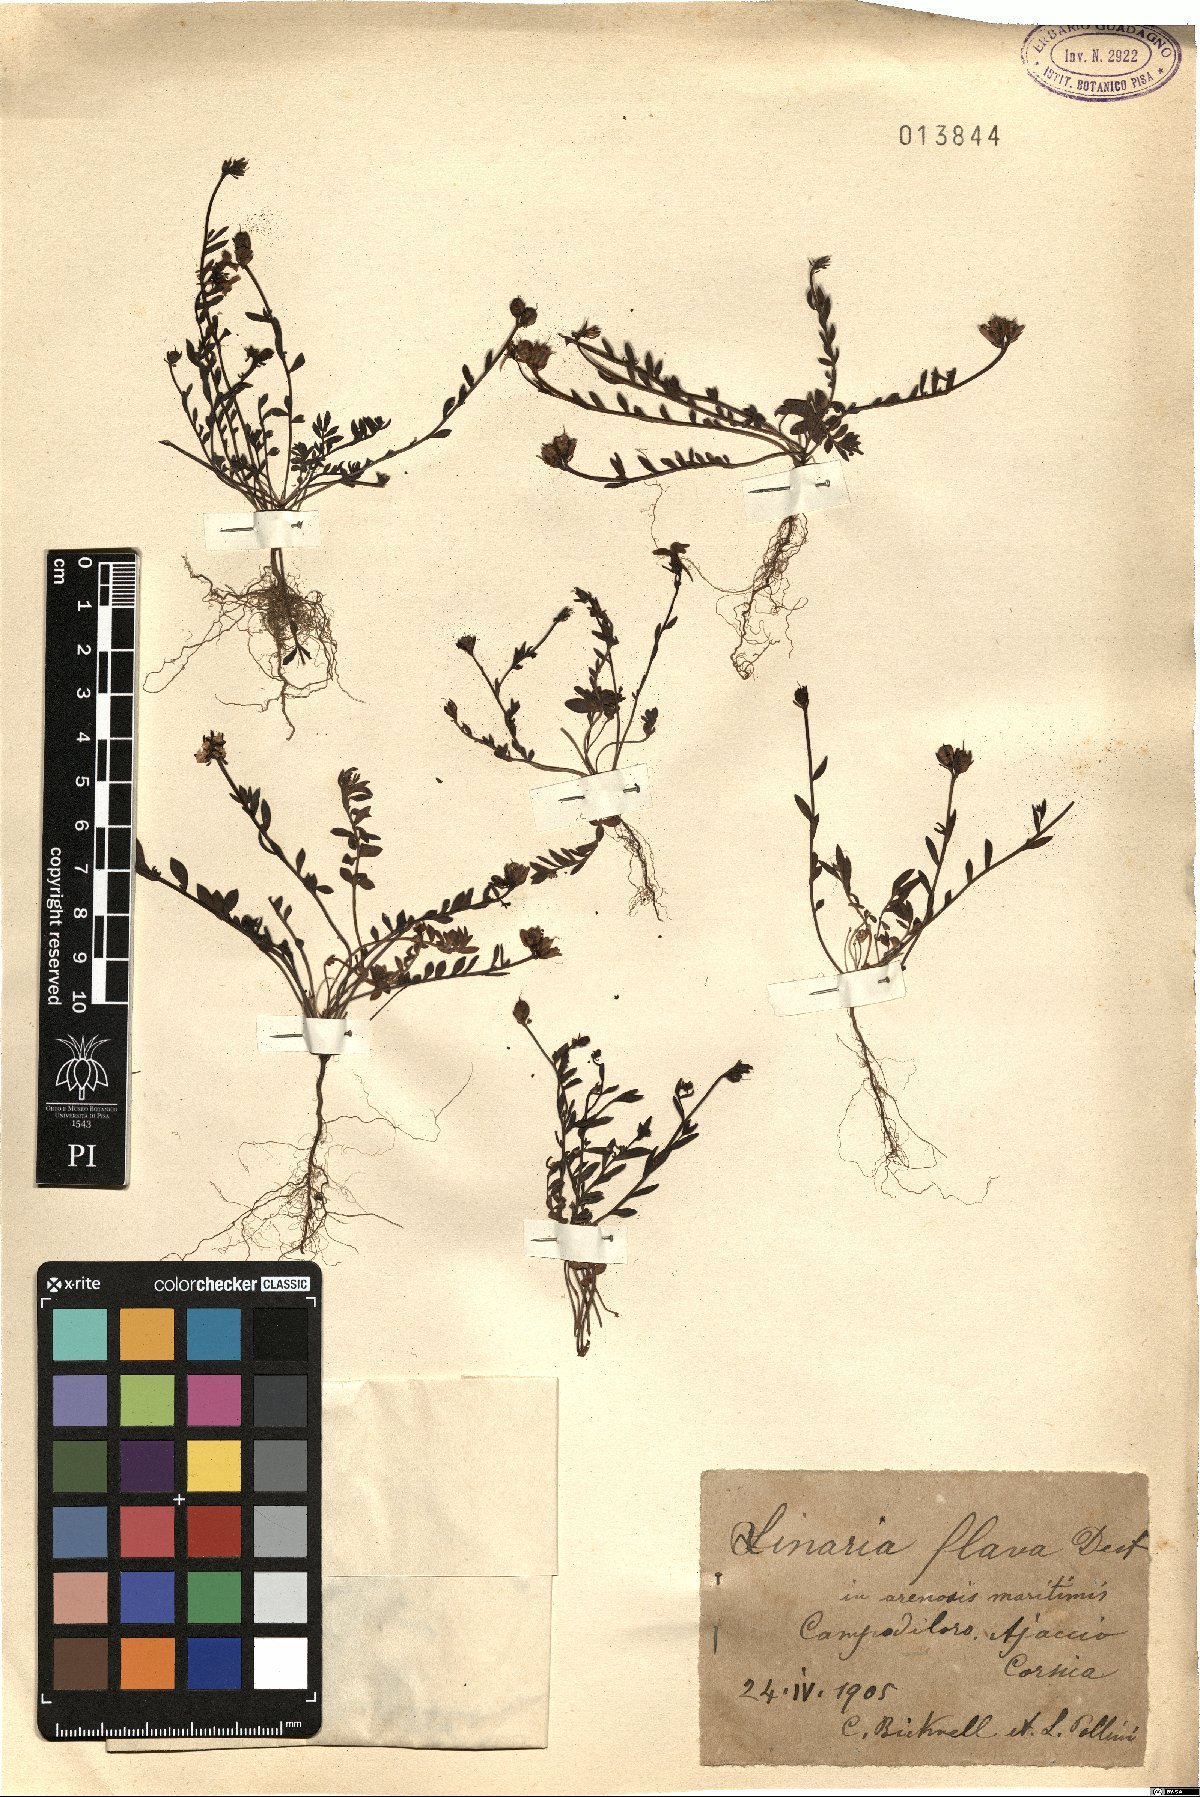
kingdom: Plantae
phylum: Tracheophyta
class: Magnoliopsida
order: Lamiales
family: Plantaginaceae
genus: Linaria
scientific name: Linaria flava
